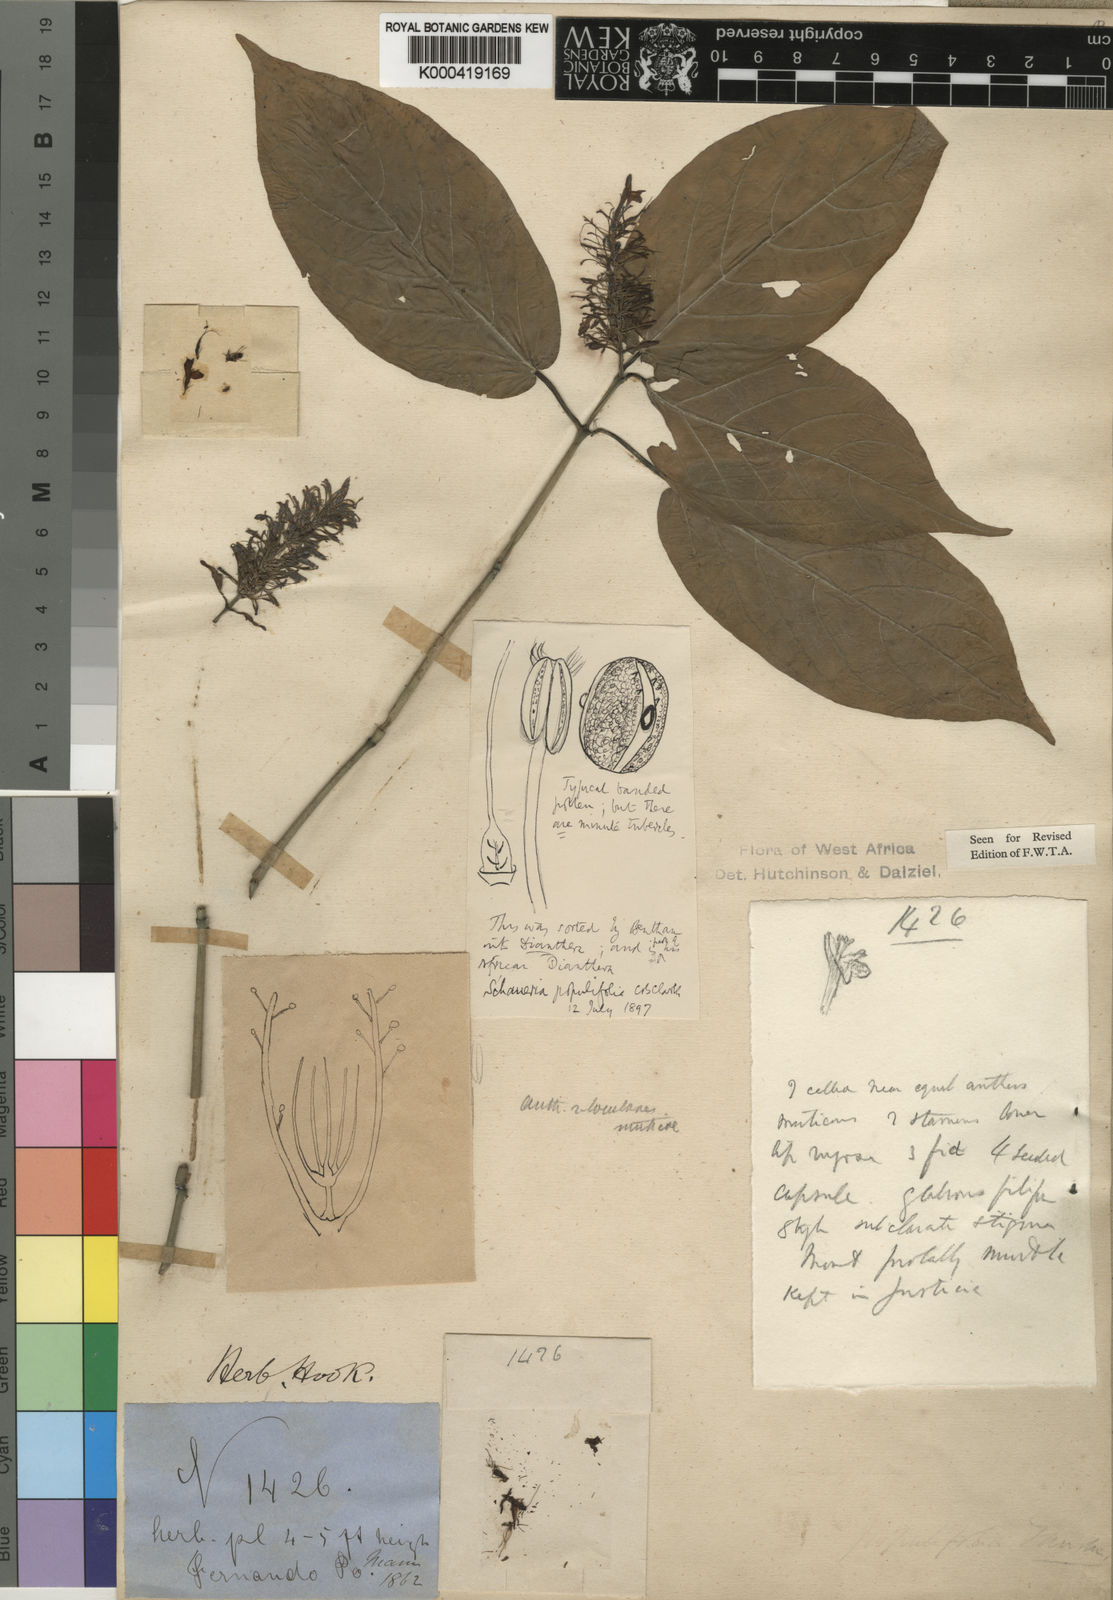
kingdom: Plantae
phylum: Tracheophyta
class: Magnoliopsida
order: Lamiales
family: Acanthaceae
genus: Justicia
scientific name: Justicia
